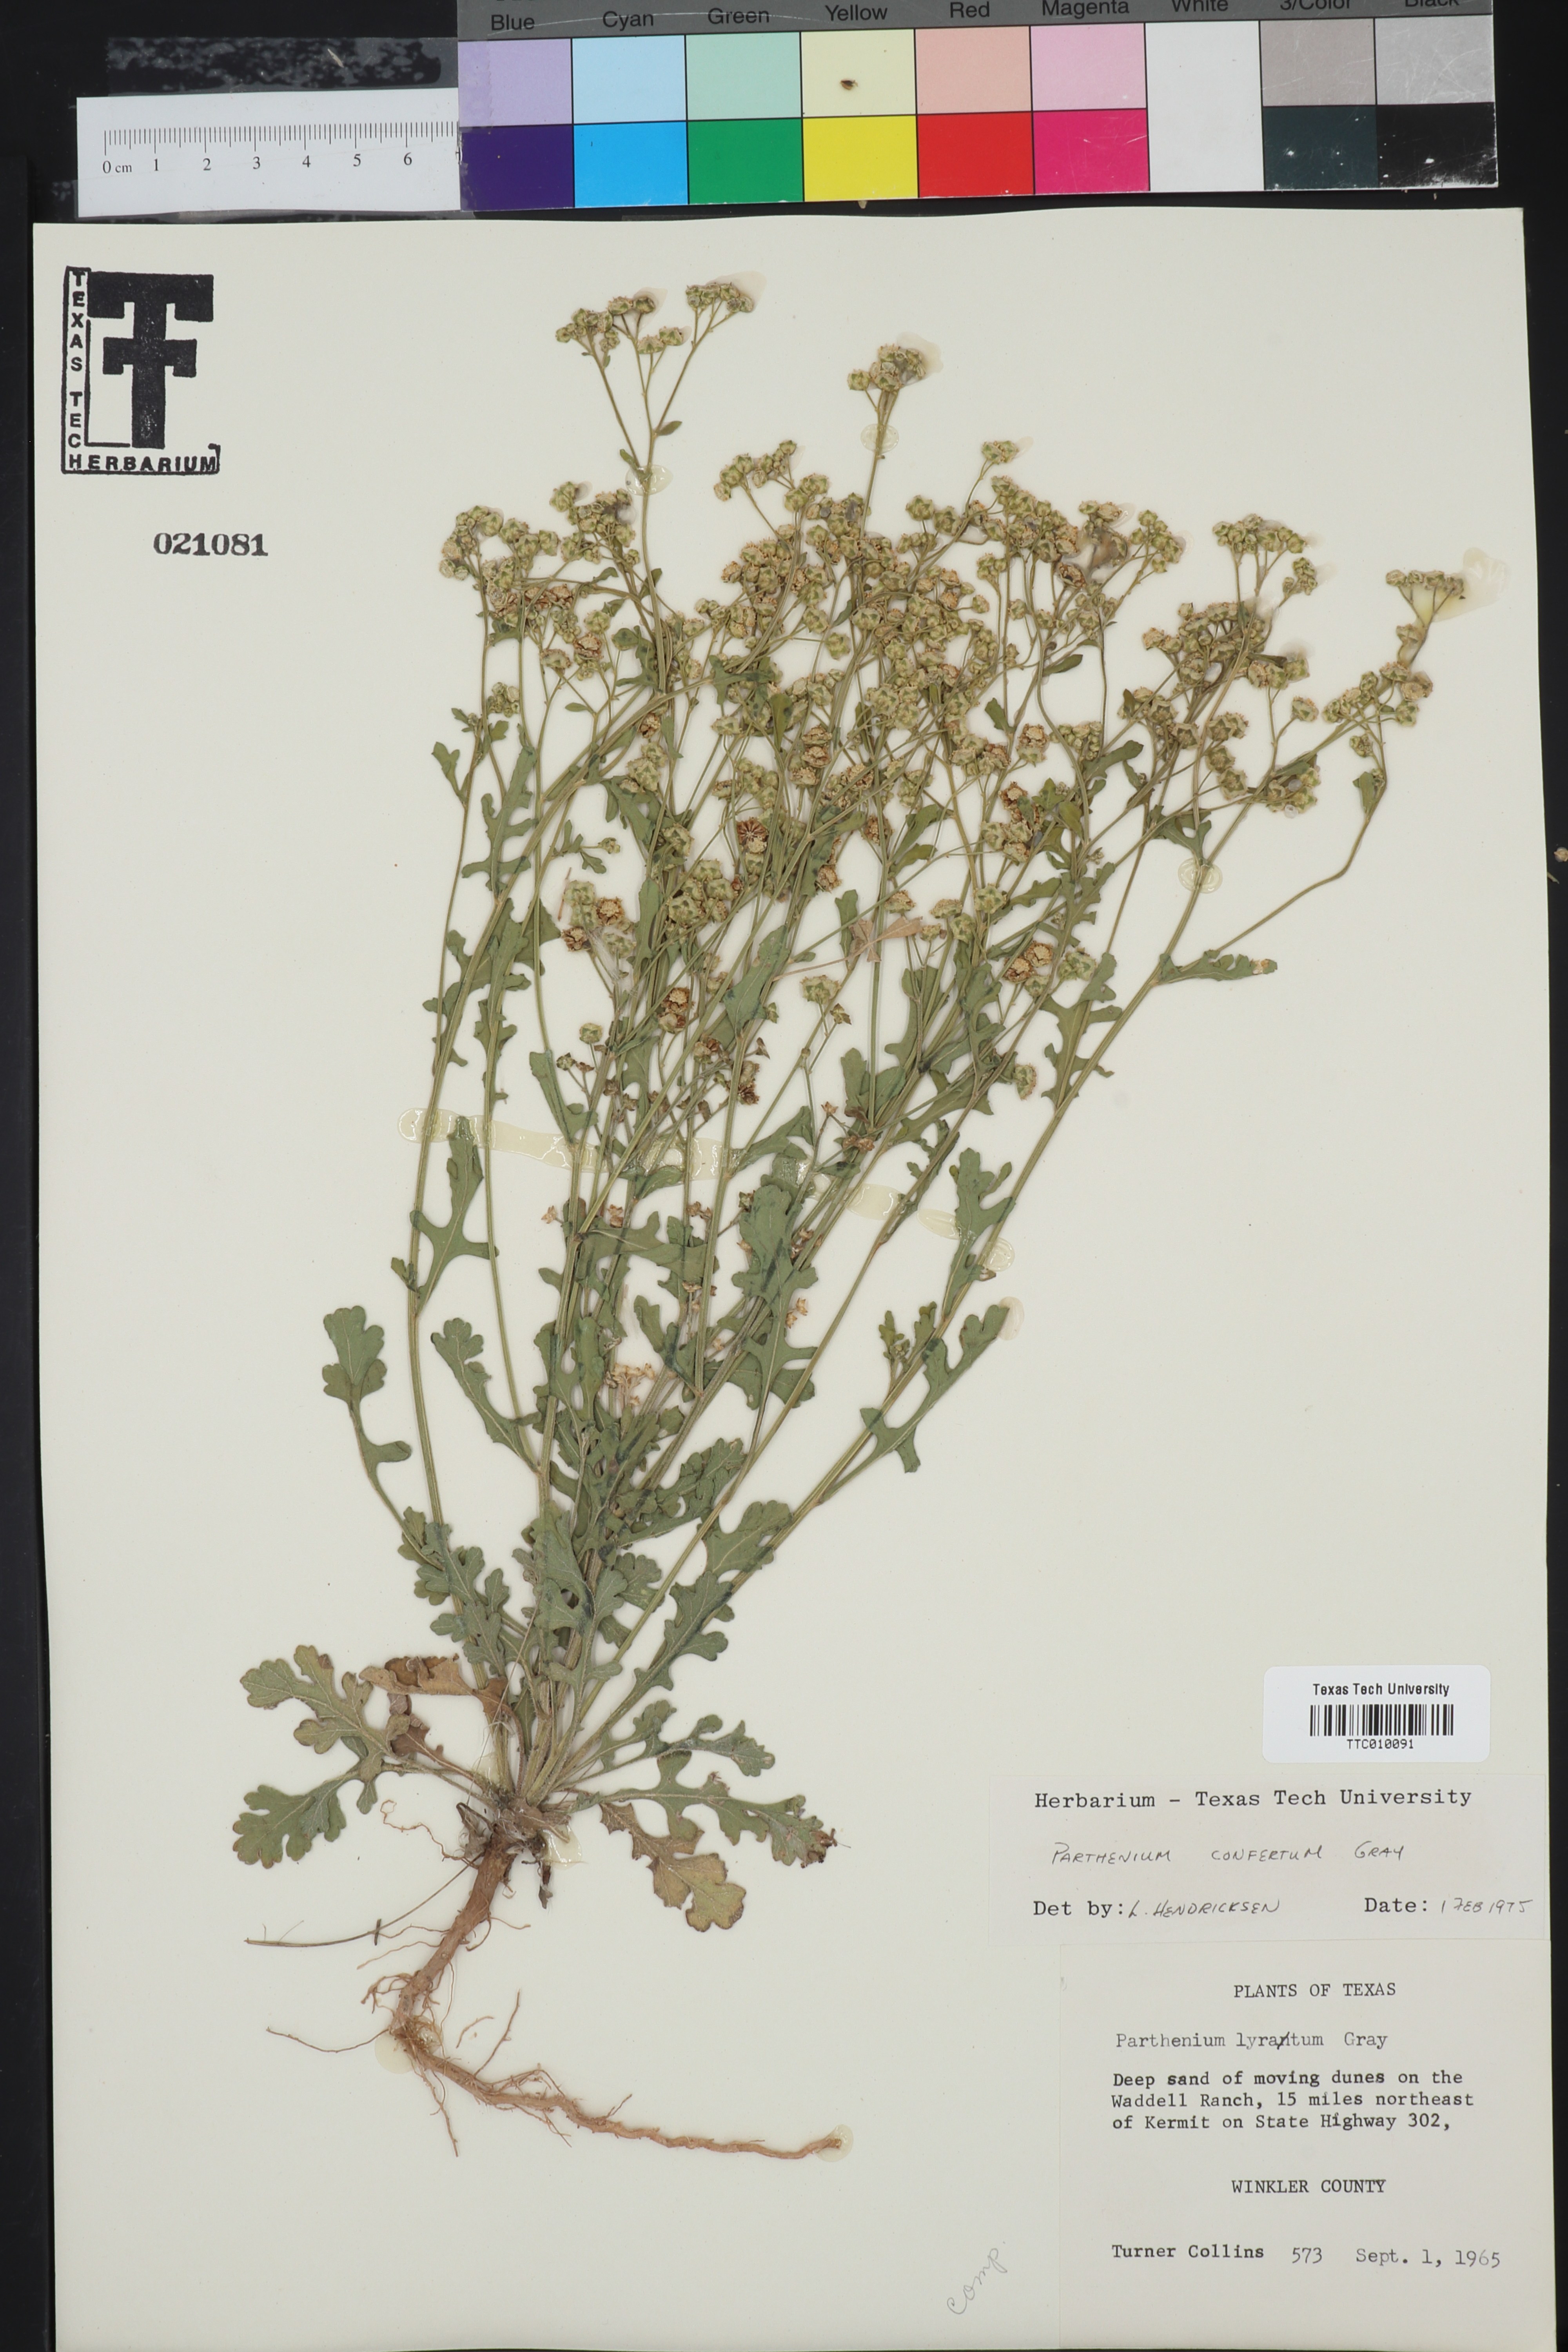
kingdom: Plantae
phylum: Tracheophyta
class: Magnoliopsida
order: Asterales
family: Asteraceae
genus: Parthenium
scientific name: Parthenium confertum
